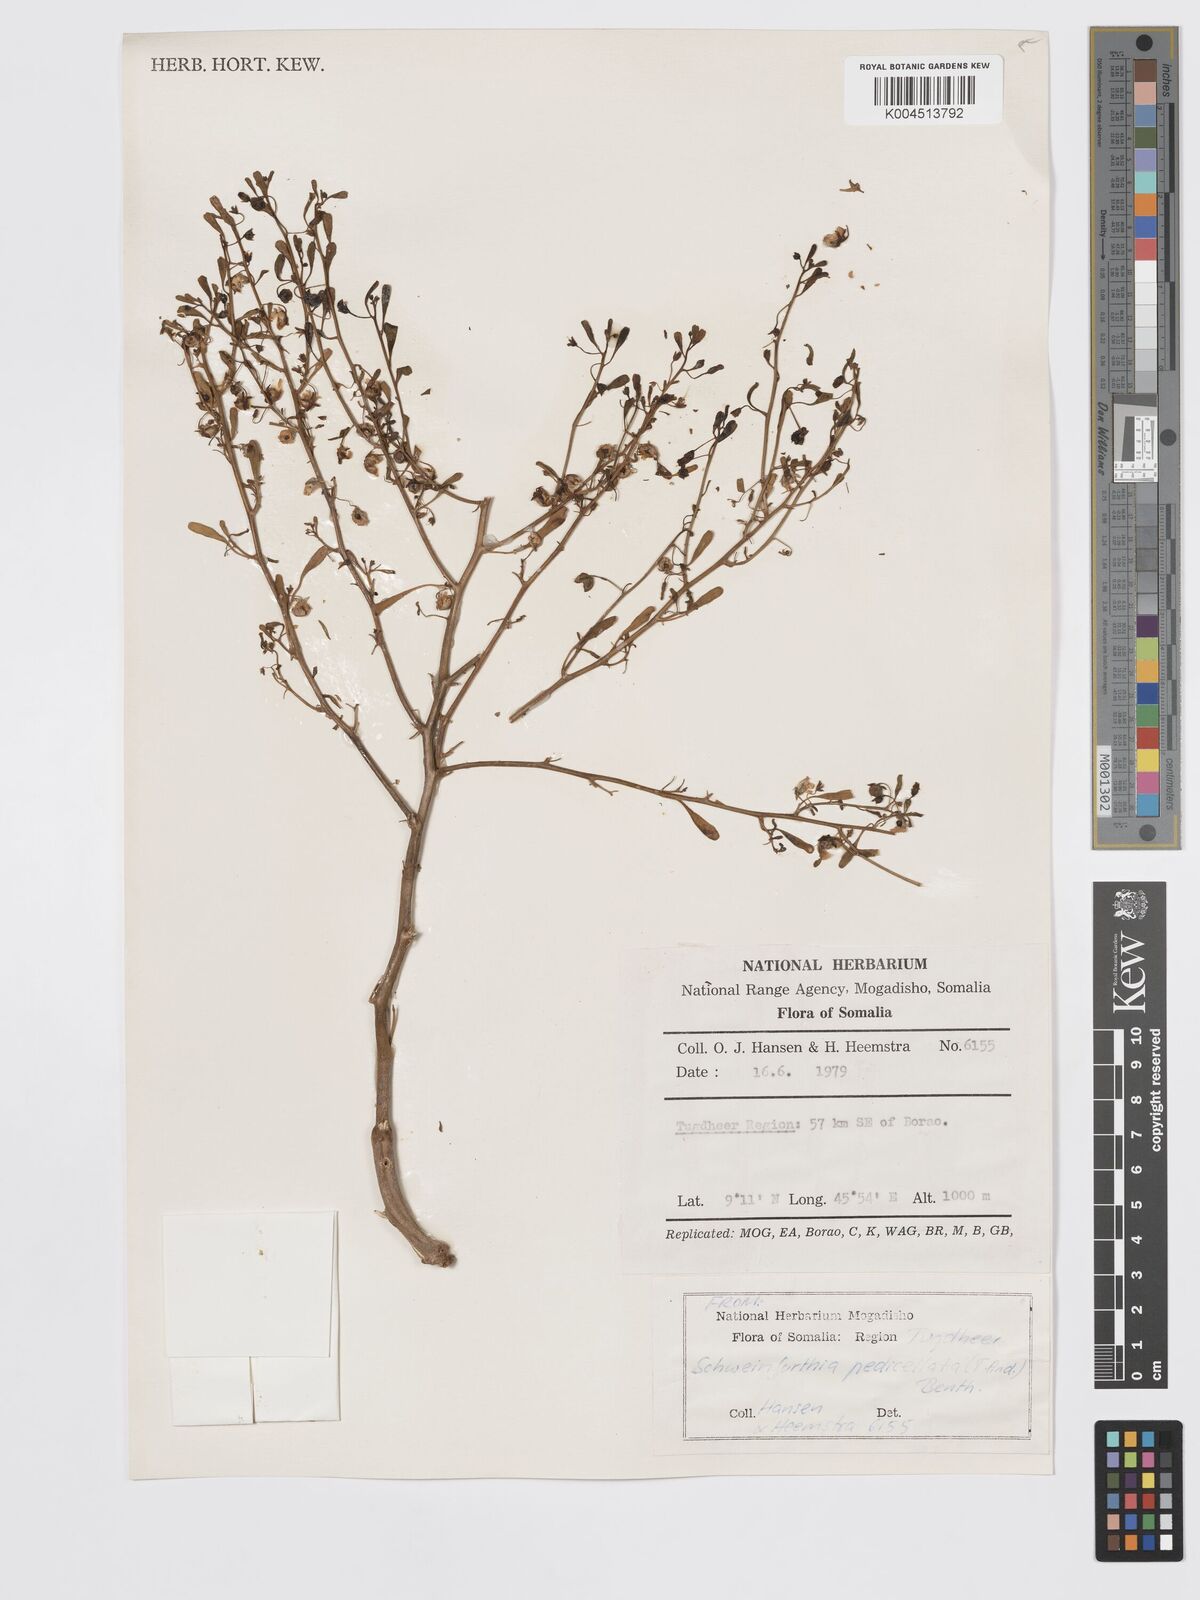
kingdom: Plantae
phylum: Tracheophyta
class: Magnoliopsida
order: Lamiales
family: Plantaginaceae
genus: Schweinfurthia
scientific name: Schweinfurthia pterosperma
